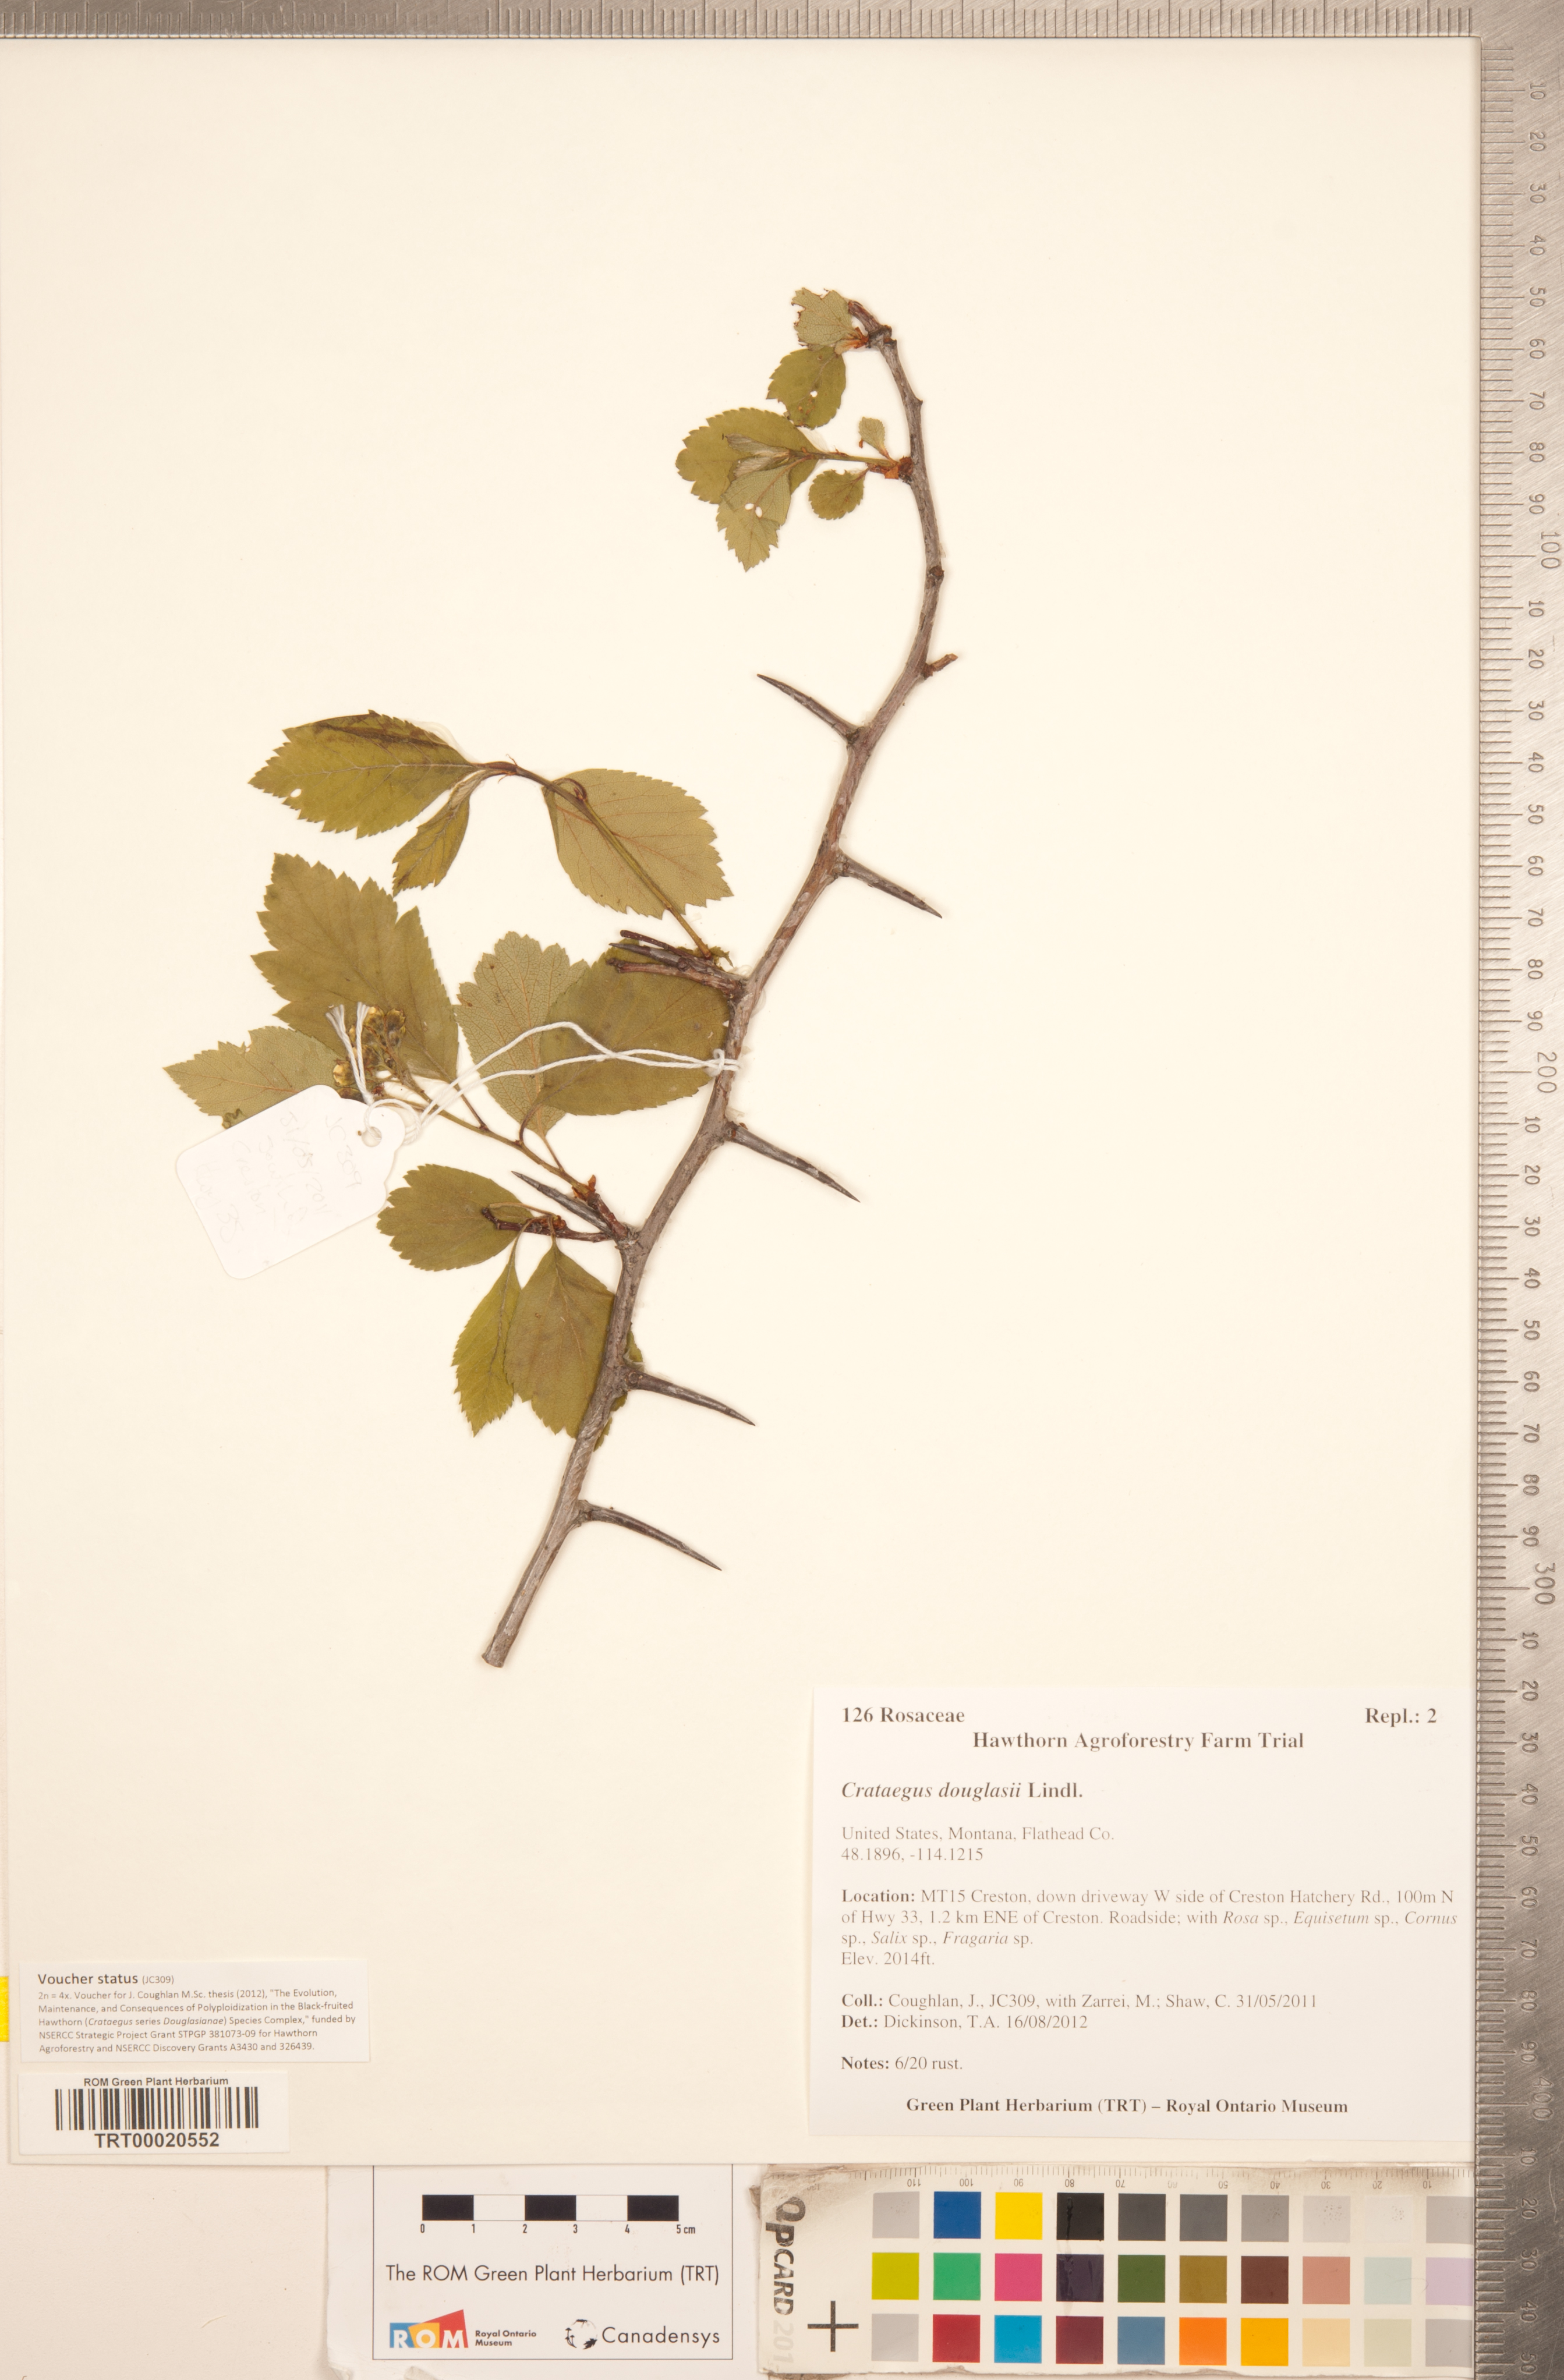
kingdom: Plantae
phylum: Tracheophyta
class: Magnoliopsida
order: Rosales
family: Rosaceae
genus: Crataegus
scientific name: Crataegus douglasii
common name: Black hawthorn
